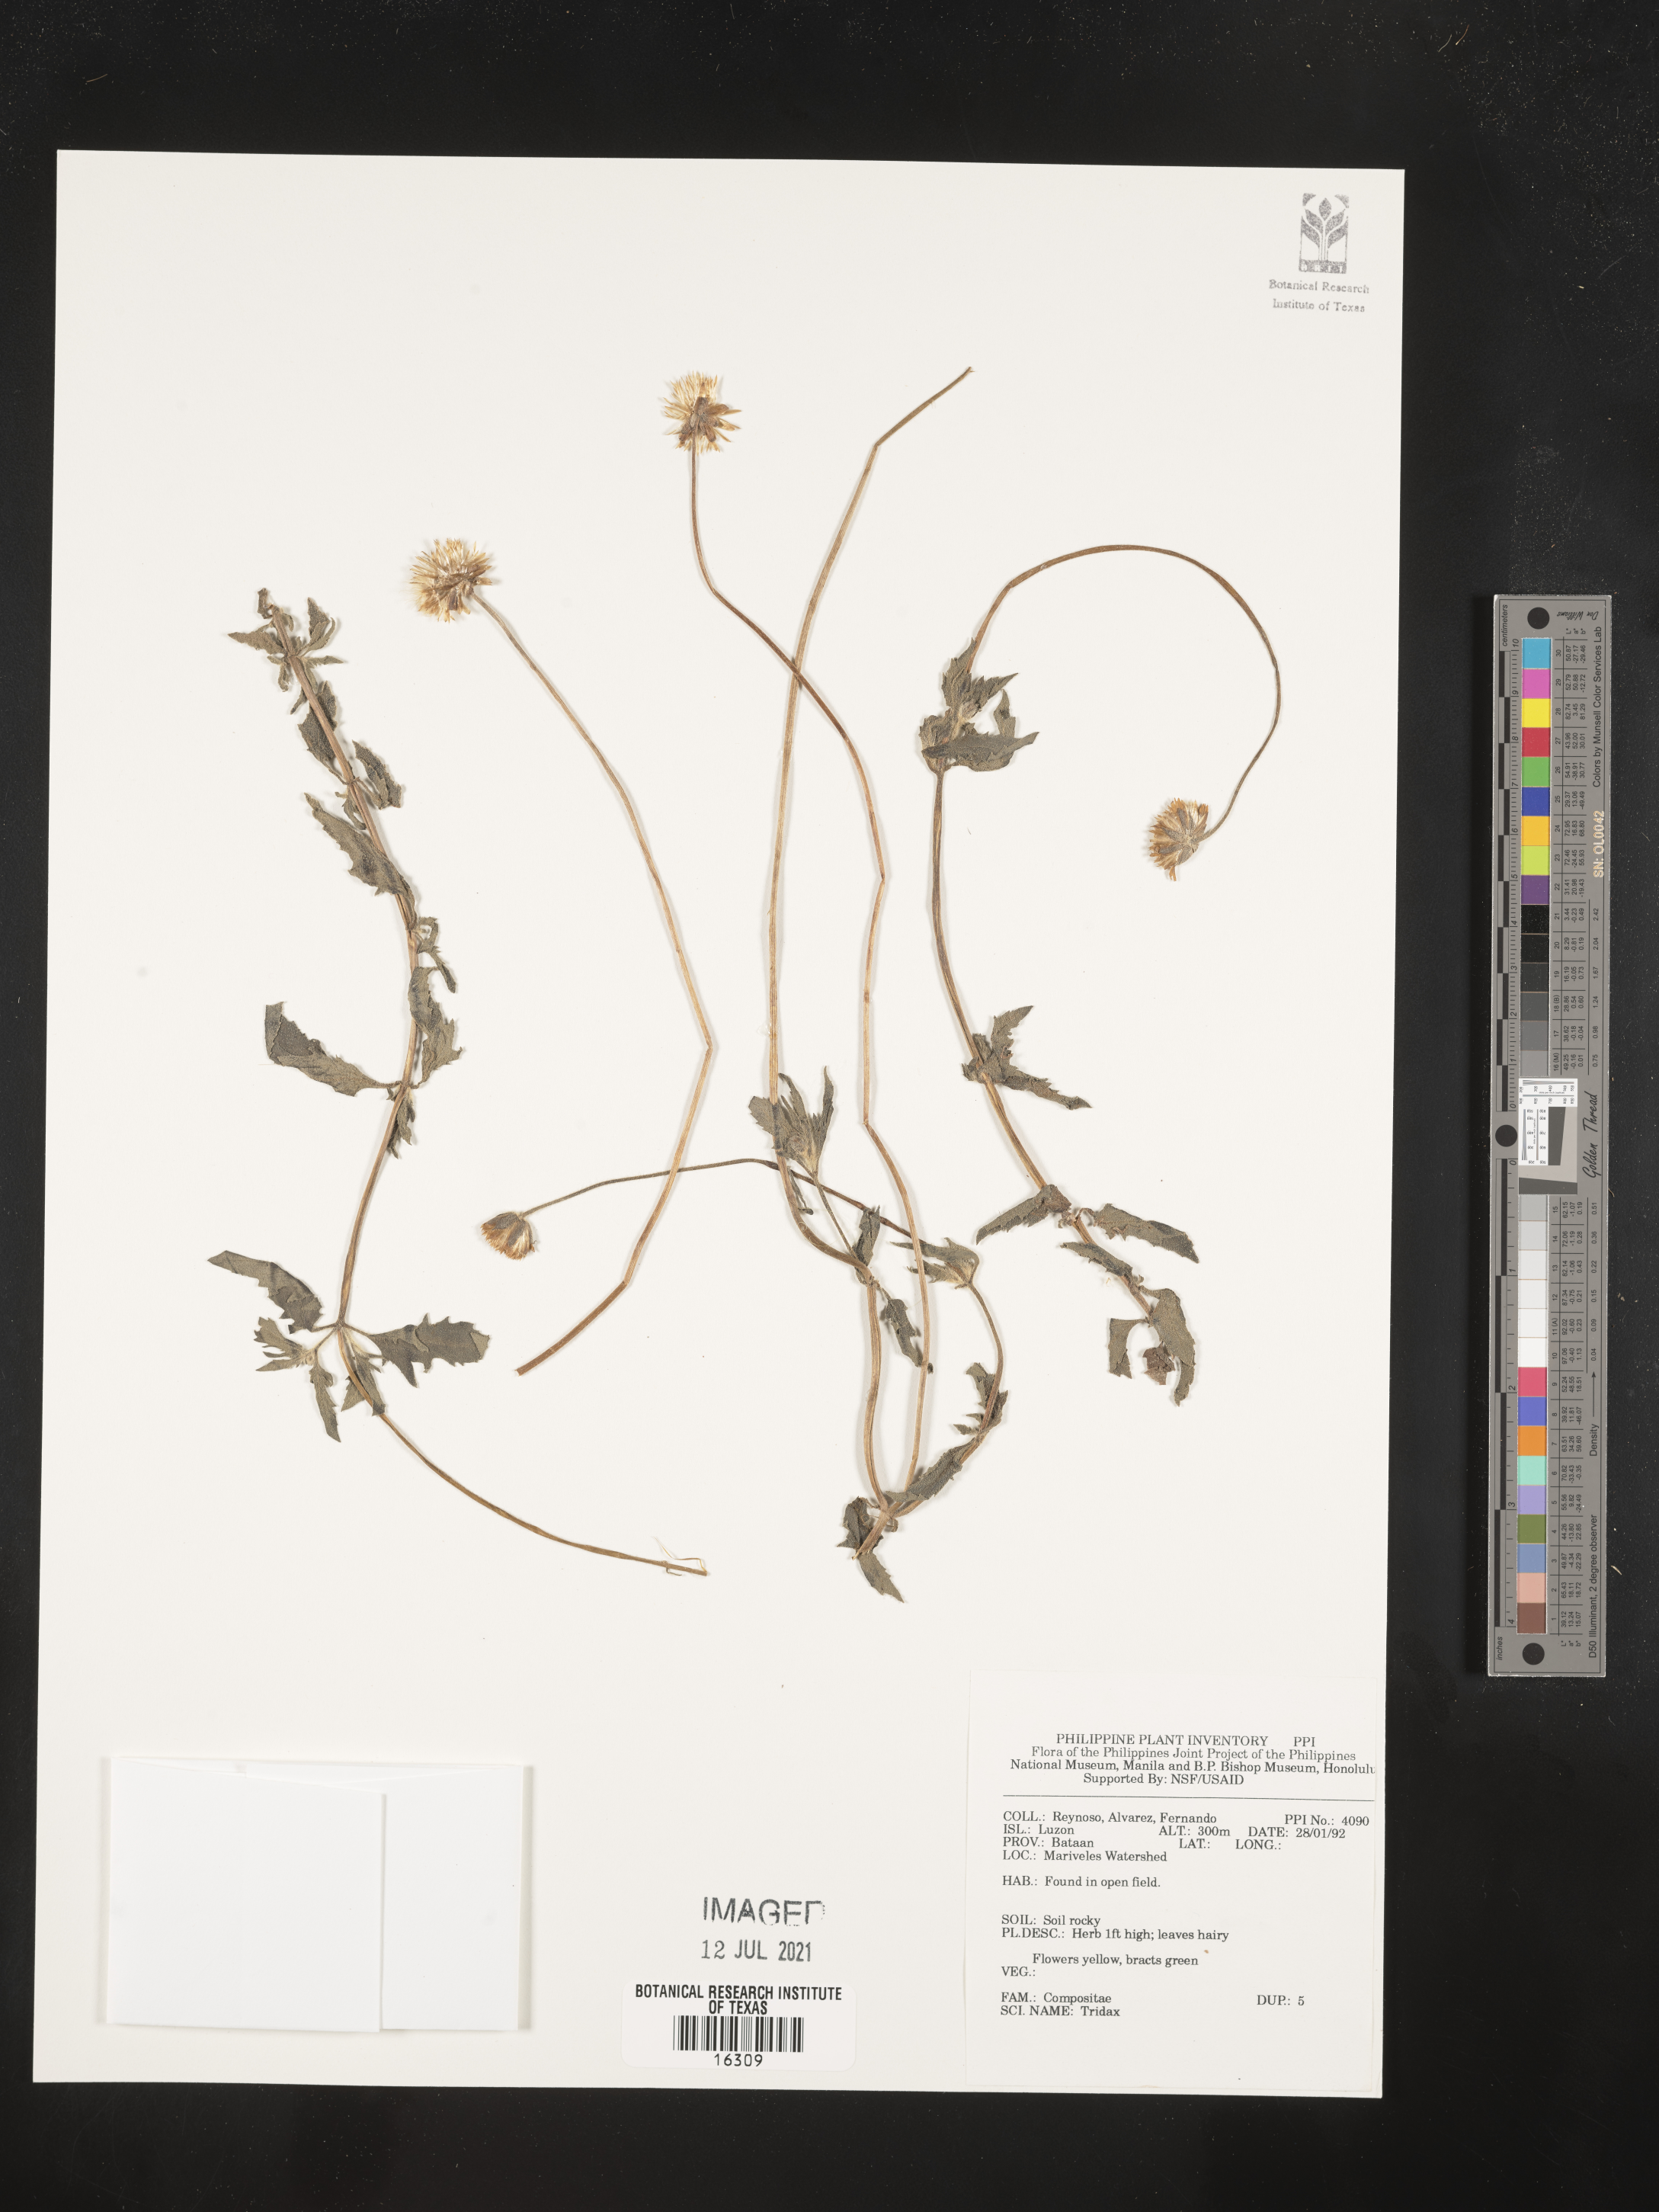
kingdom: Plantae
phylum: Tracheophyta
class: Magnoliopsida
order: Asterales
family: Asteraceae
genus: Tridax
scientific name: Tridax
